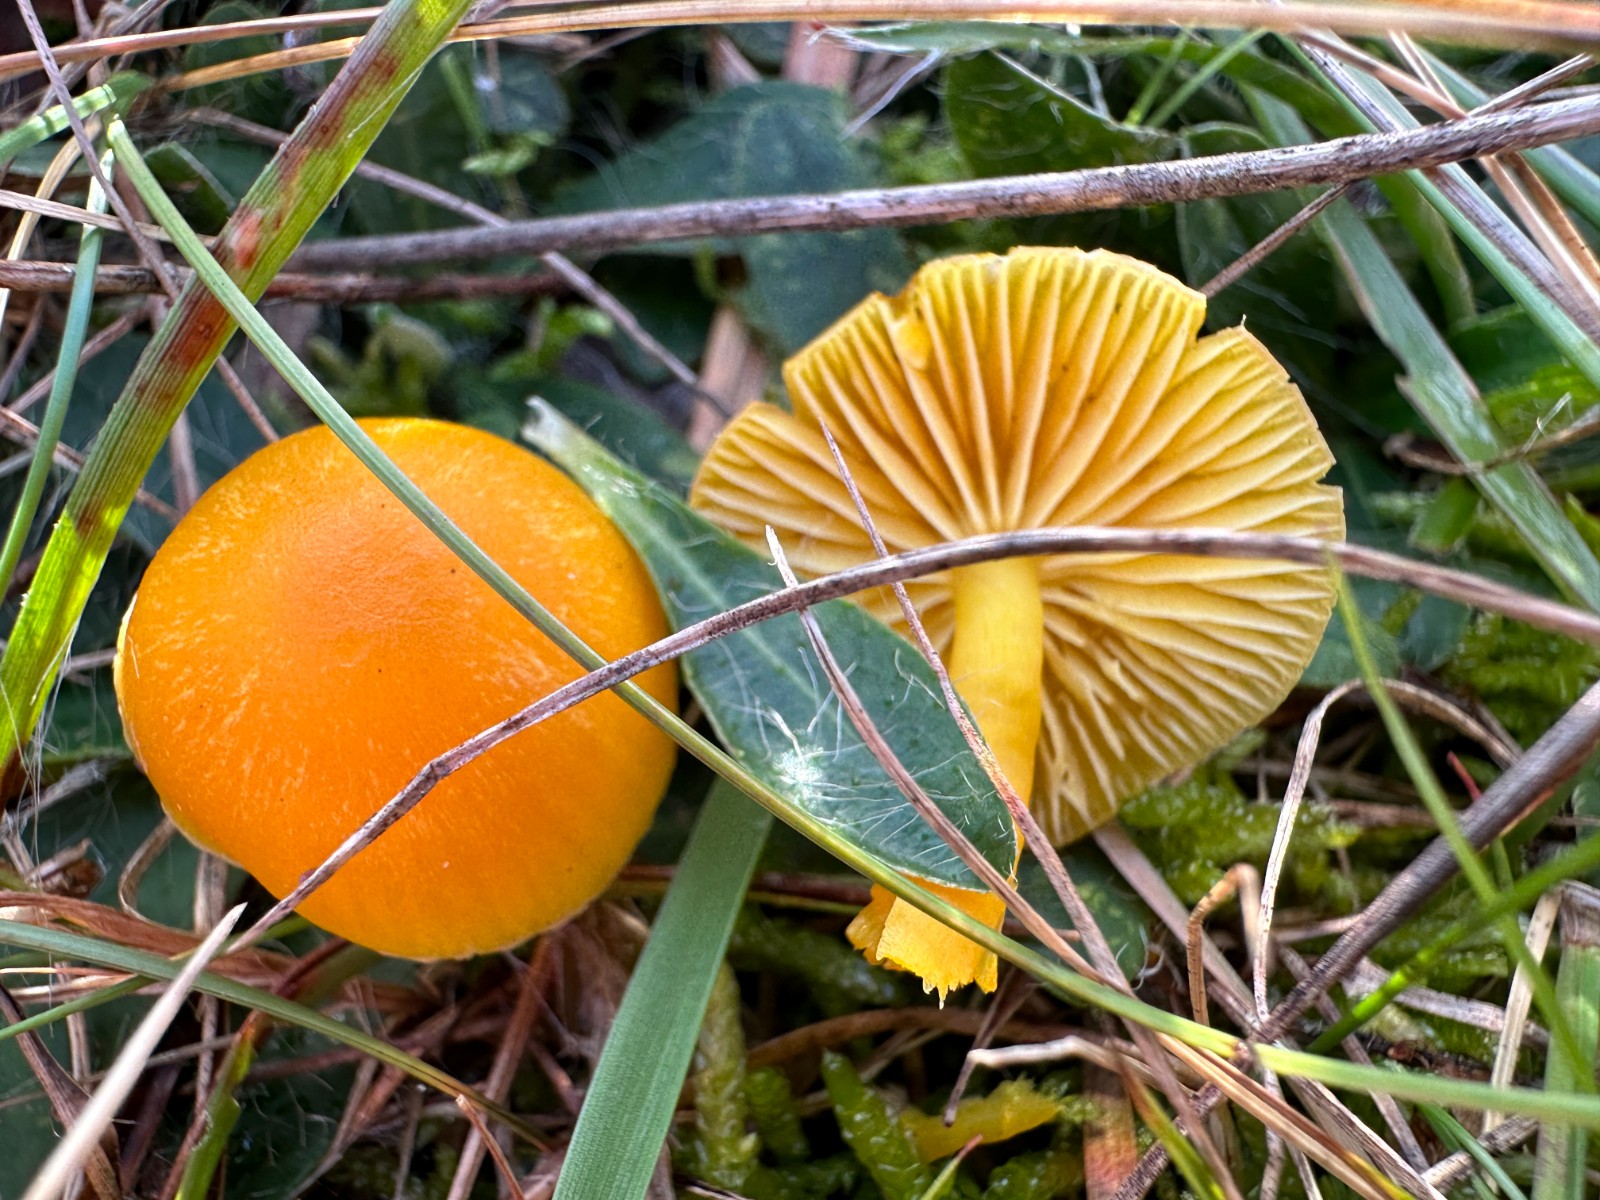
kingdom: Fungi
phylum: Basidiomycota
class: Agaricomycetes
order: Agaricales
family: Hygrophoraceae
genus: Hygrocybe
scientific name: Hygrocybe ceracea
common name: voksgul vokshat
